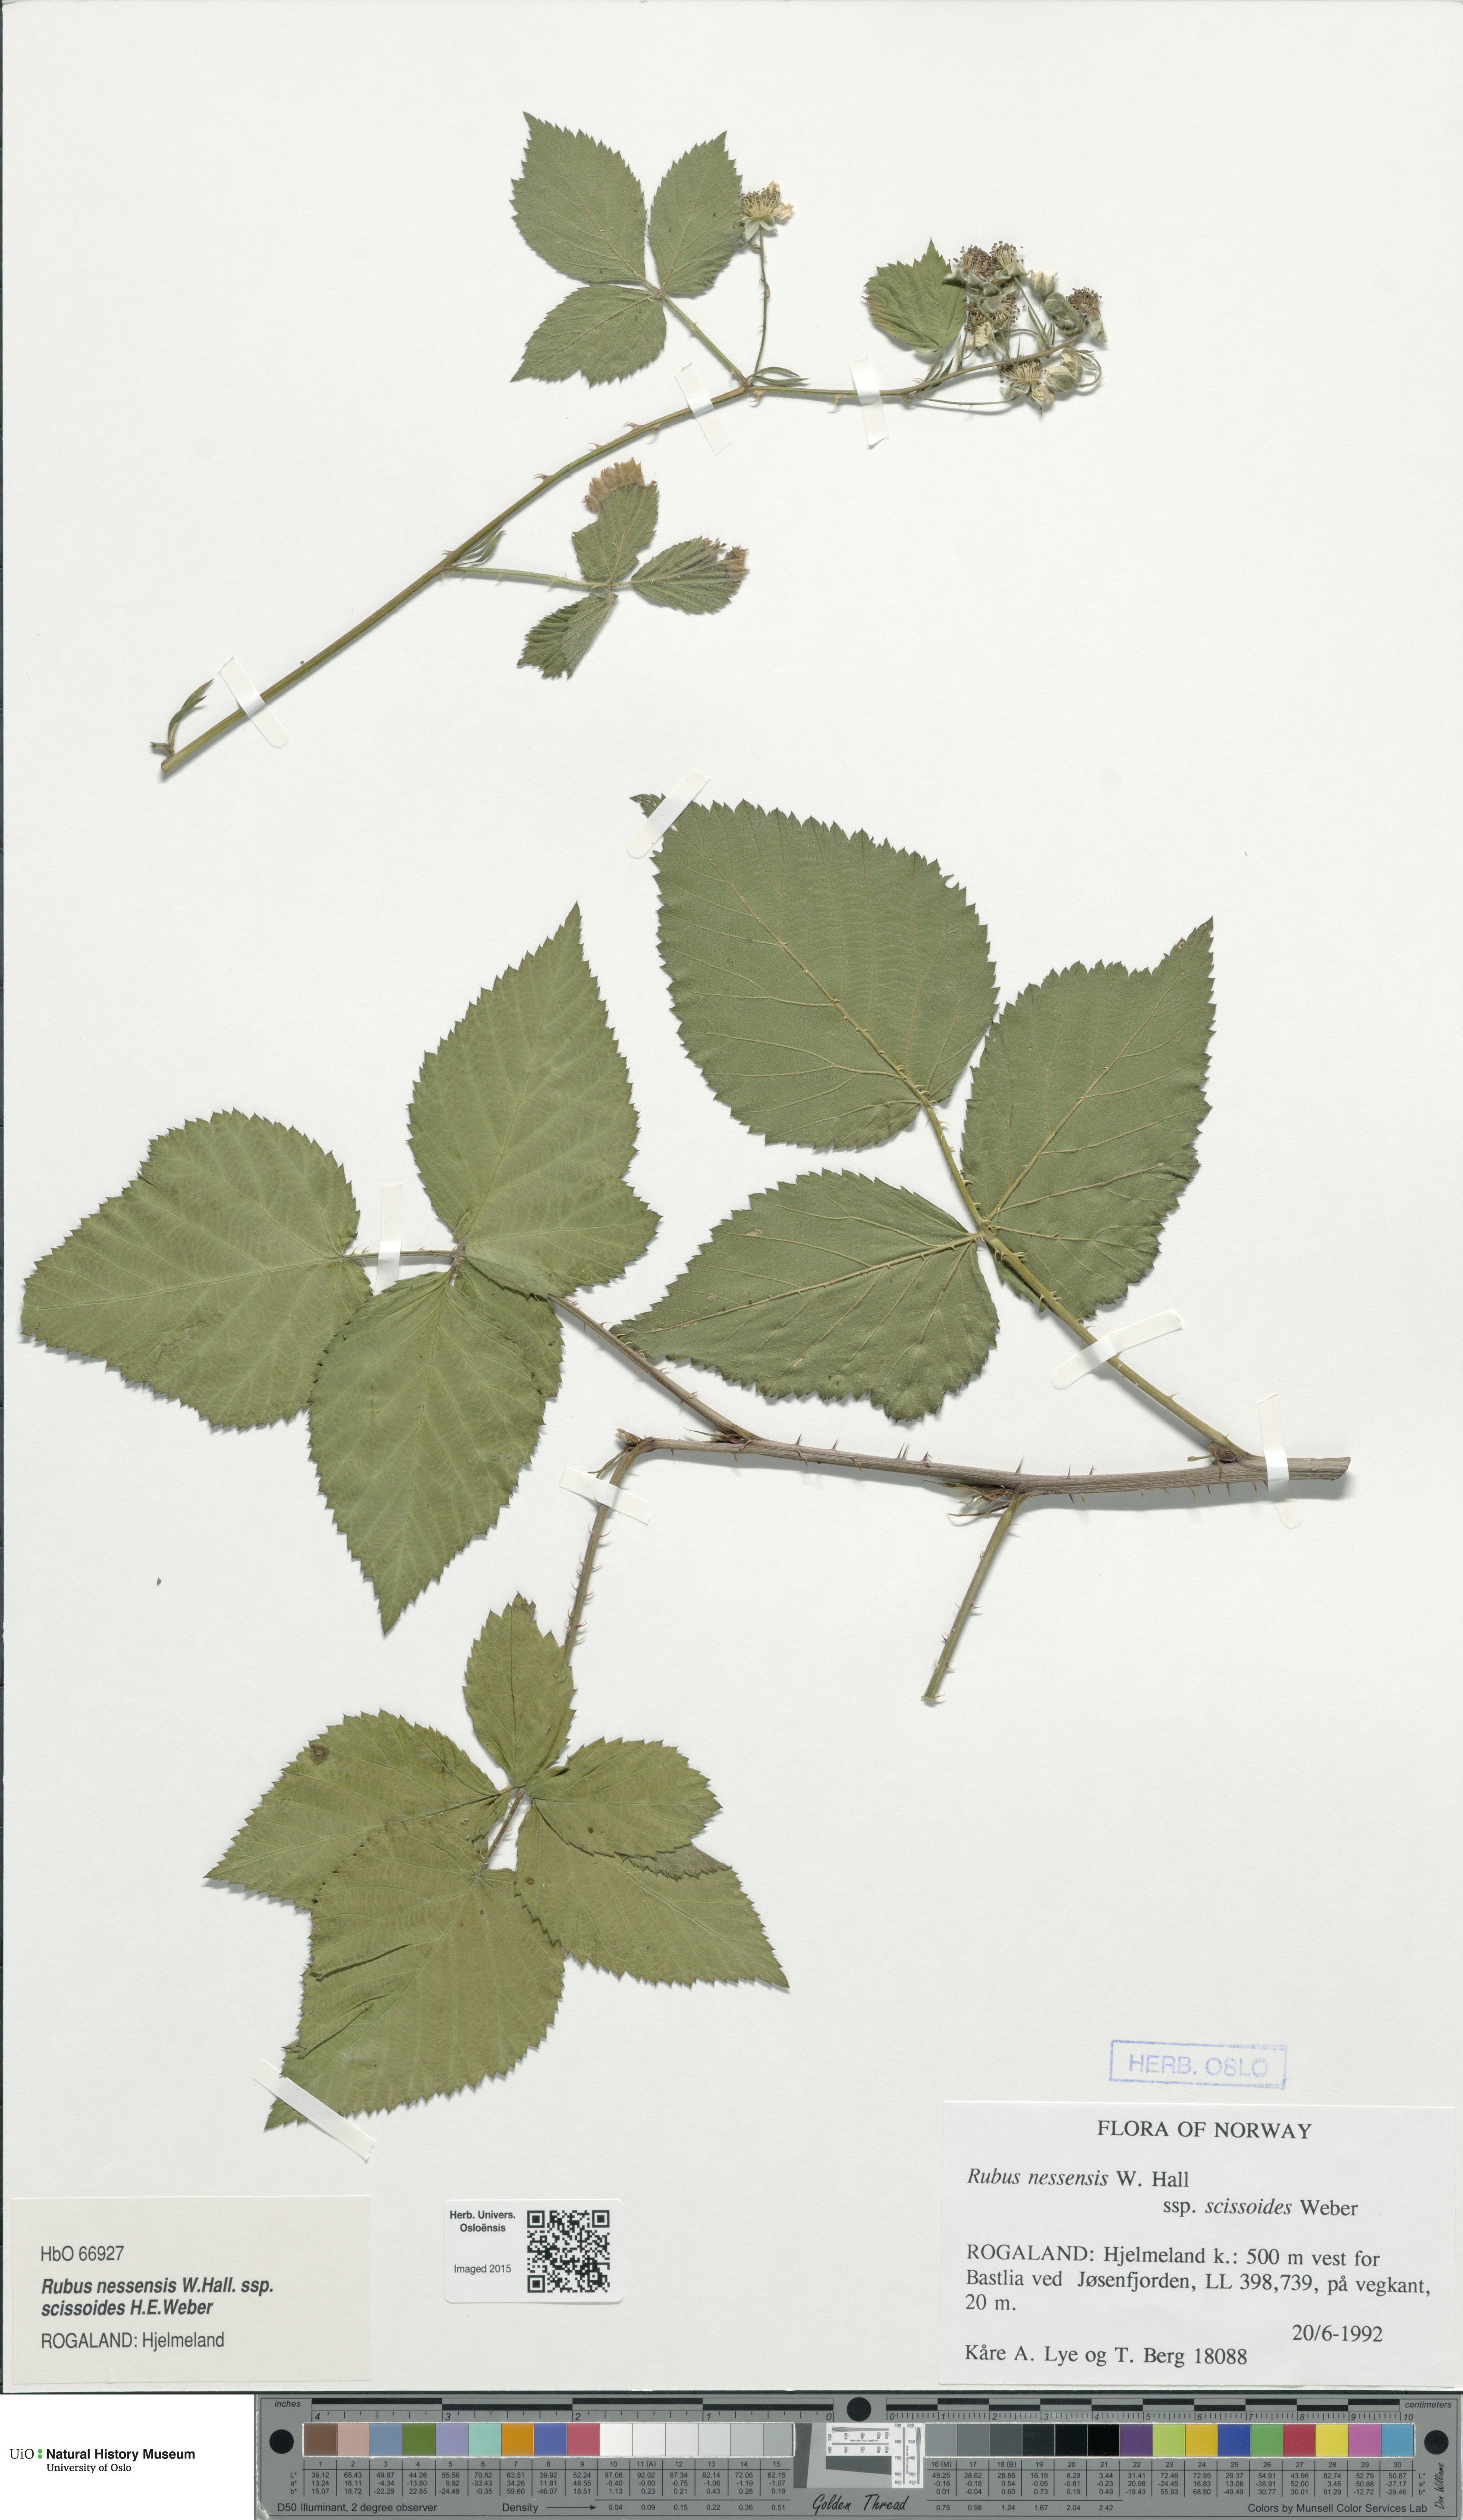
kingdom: Plantae
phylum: Tracheophyta
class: Magnoliopsida
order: Rosales
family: Rosaceae
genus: Rubus
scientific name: Rubus scissus
